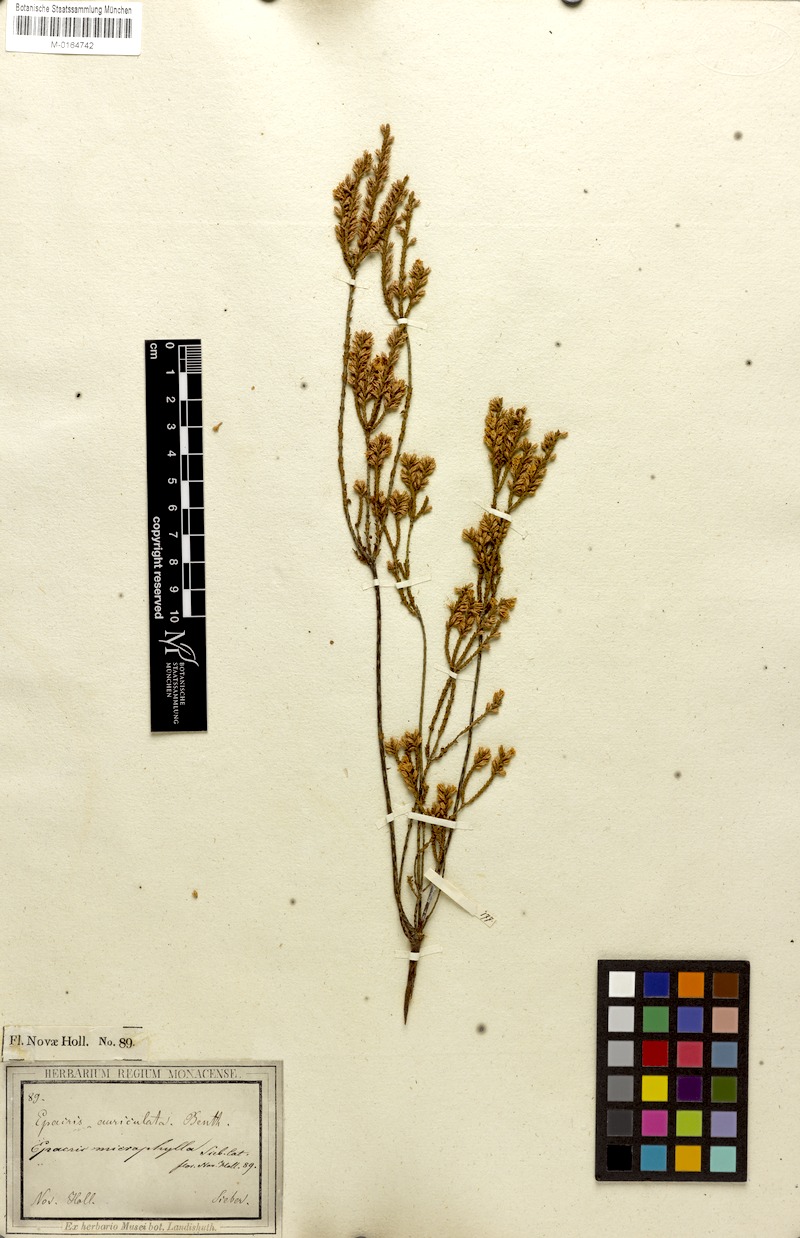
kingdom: Plantae
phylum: Tracheophyta
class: Magnoliopsida
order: Ericales
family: Ericaceae
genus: Epacris
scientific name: Epacris microphylla
